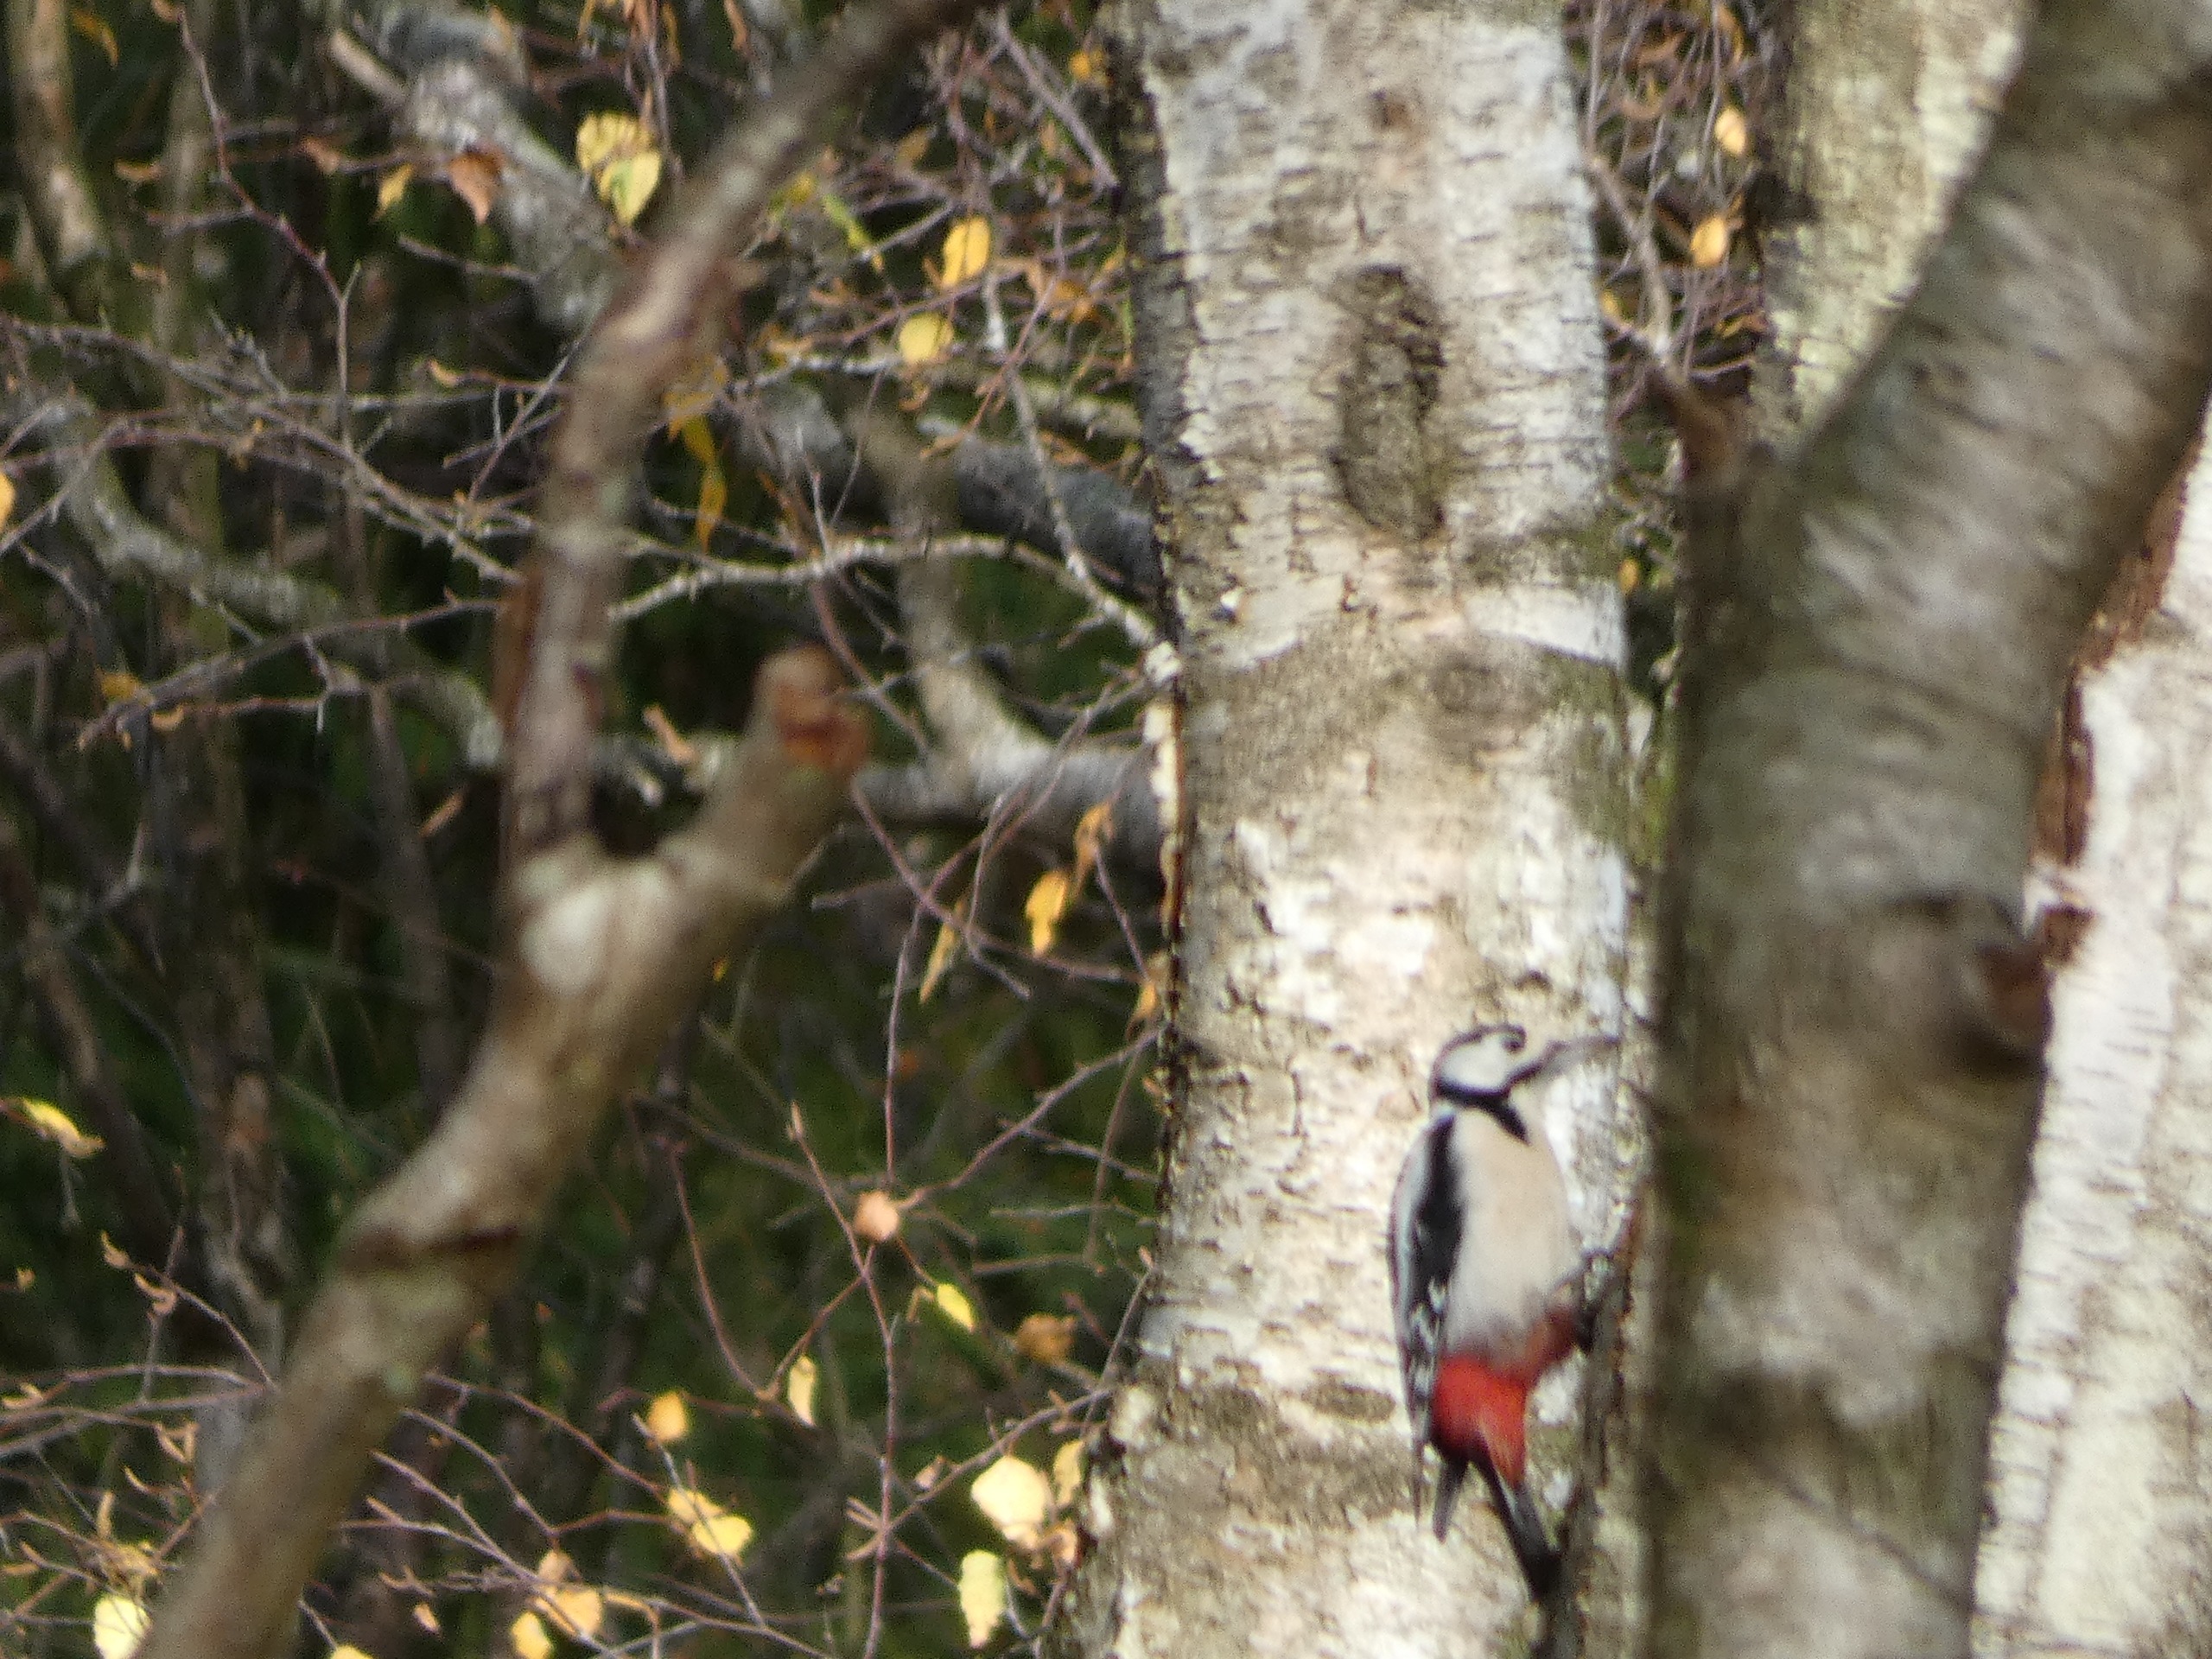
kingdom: Animalia
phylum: Chordata
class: Aves
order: Piciformes
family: Picidae
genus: Dendrocopos
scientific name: Dendrocopos major
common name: Stor flagspætte
